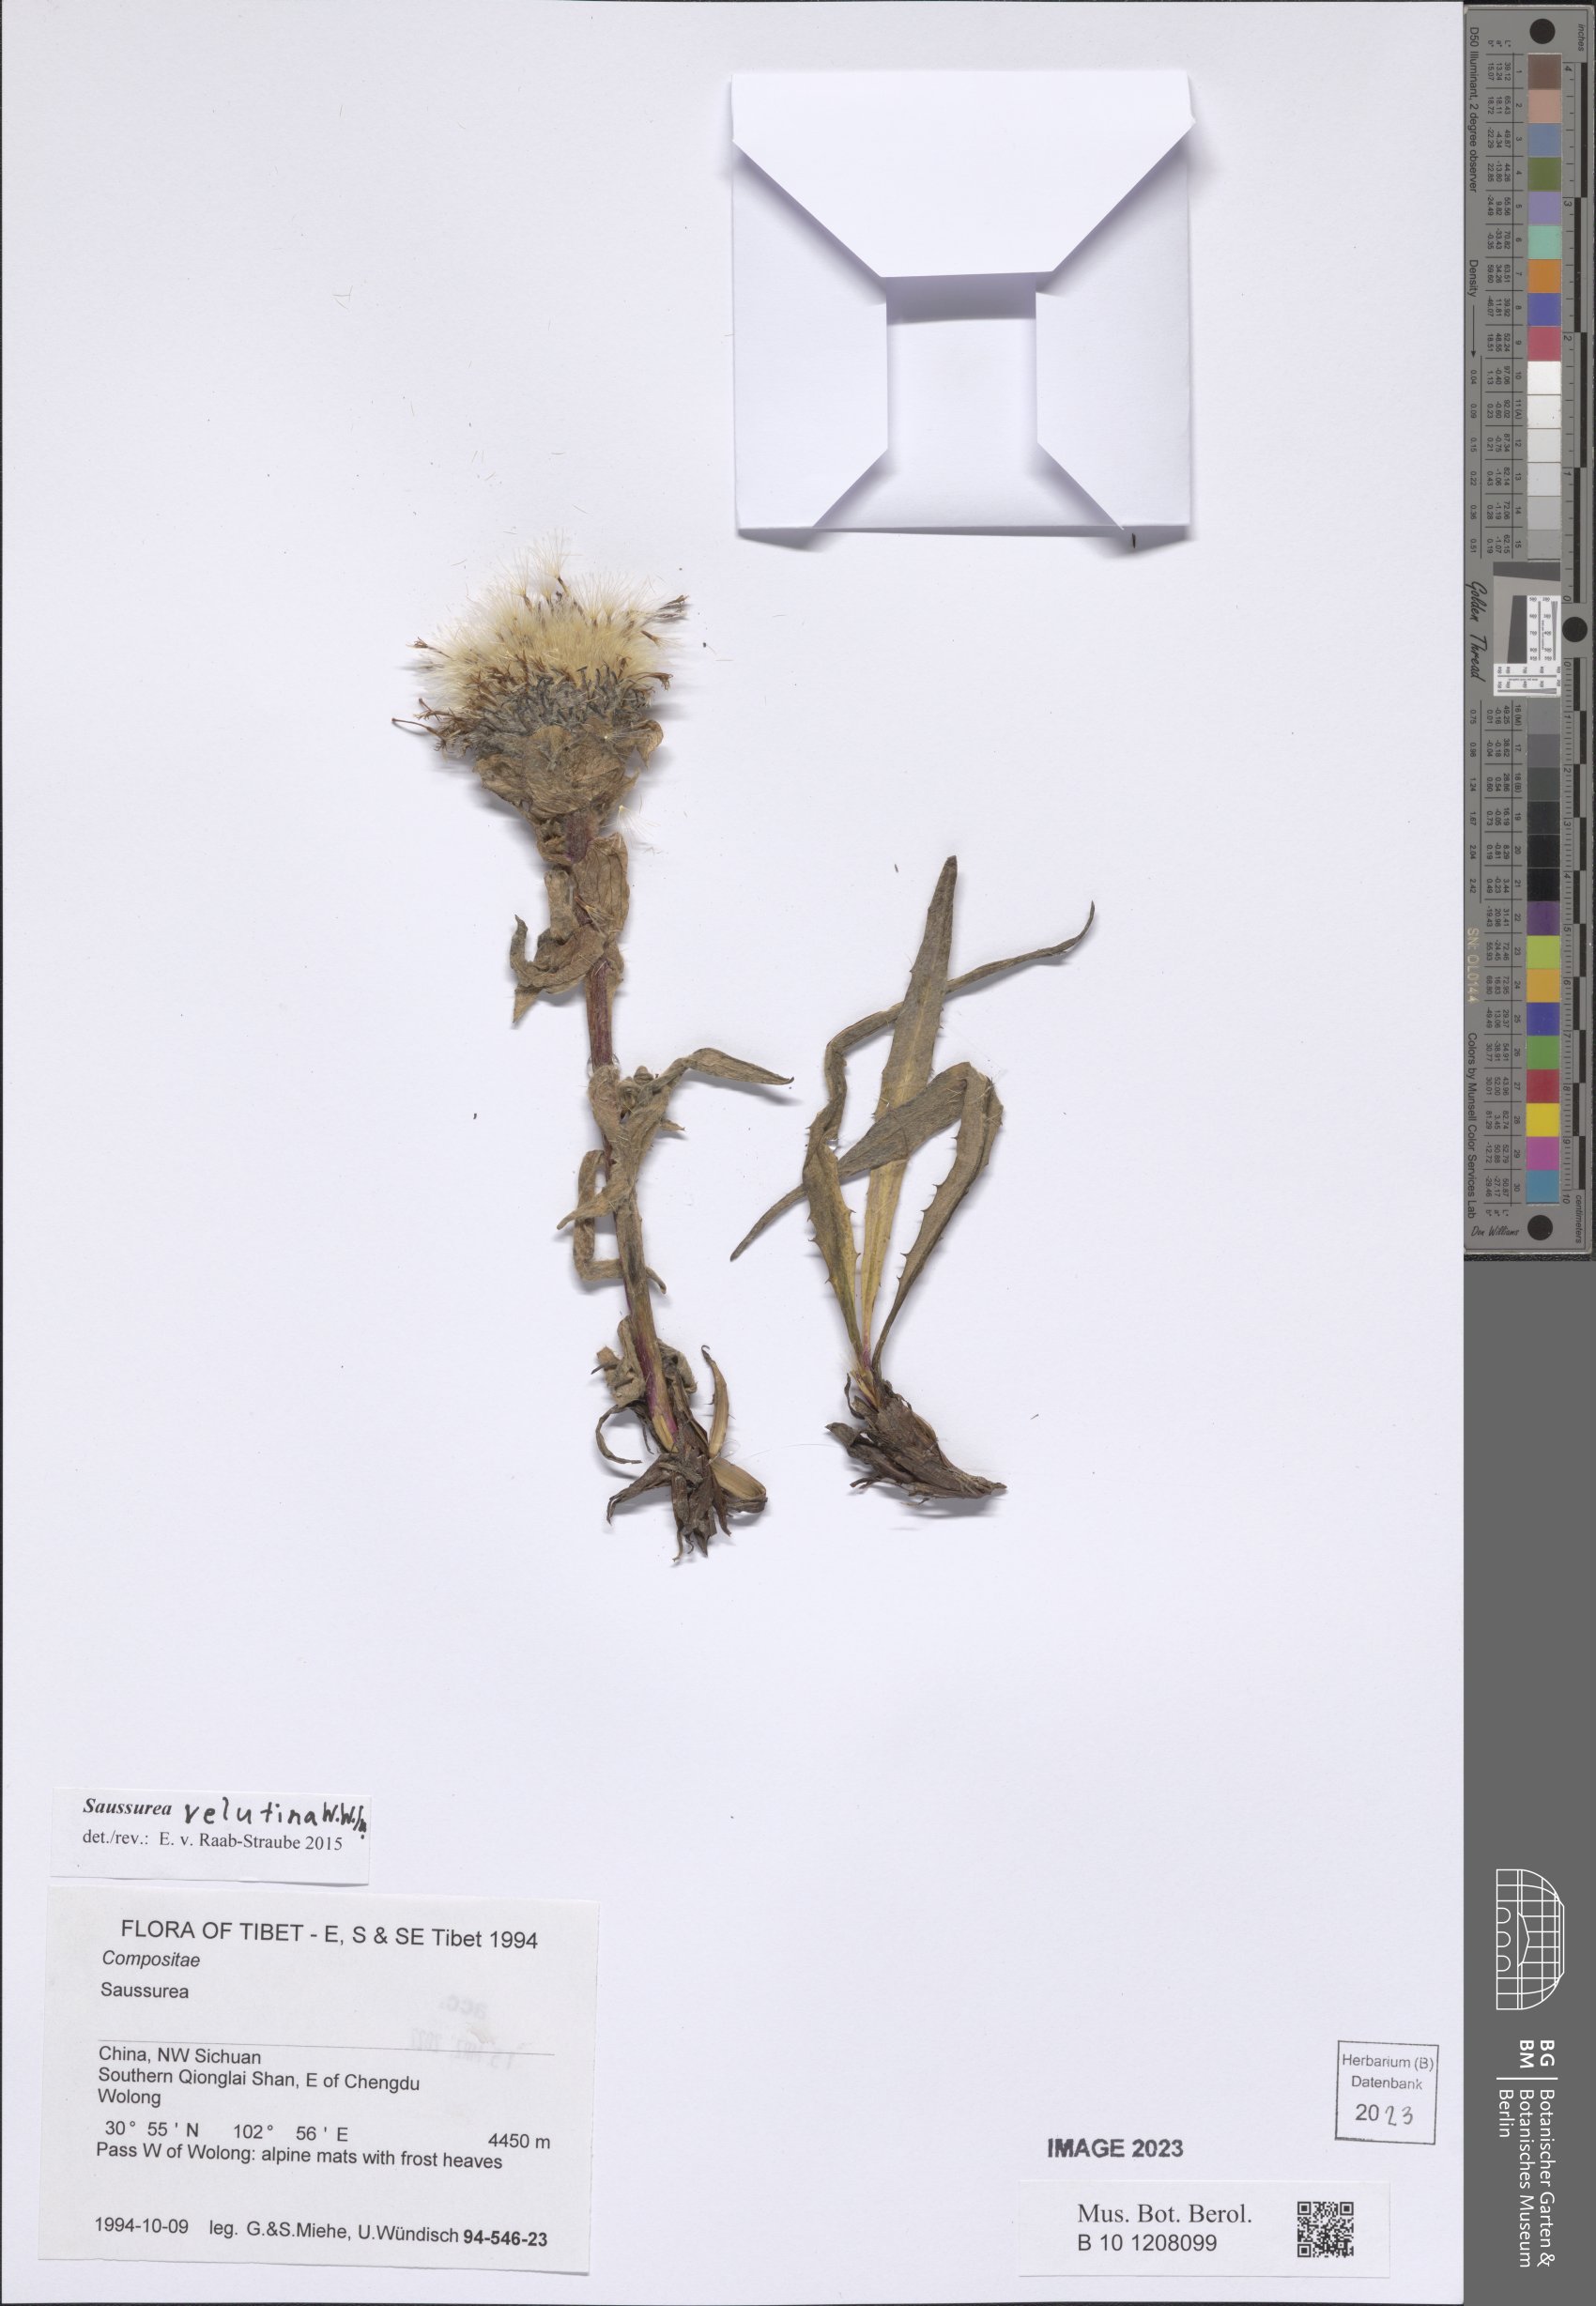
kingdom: Plantae
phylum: Tracheophyta
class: Magnoliopsida
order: Asterales
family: Asteraceae
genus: Saussurea
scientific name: Saussurea velutina
